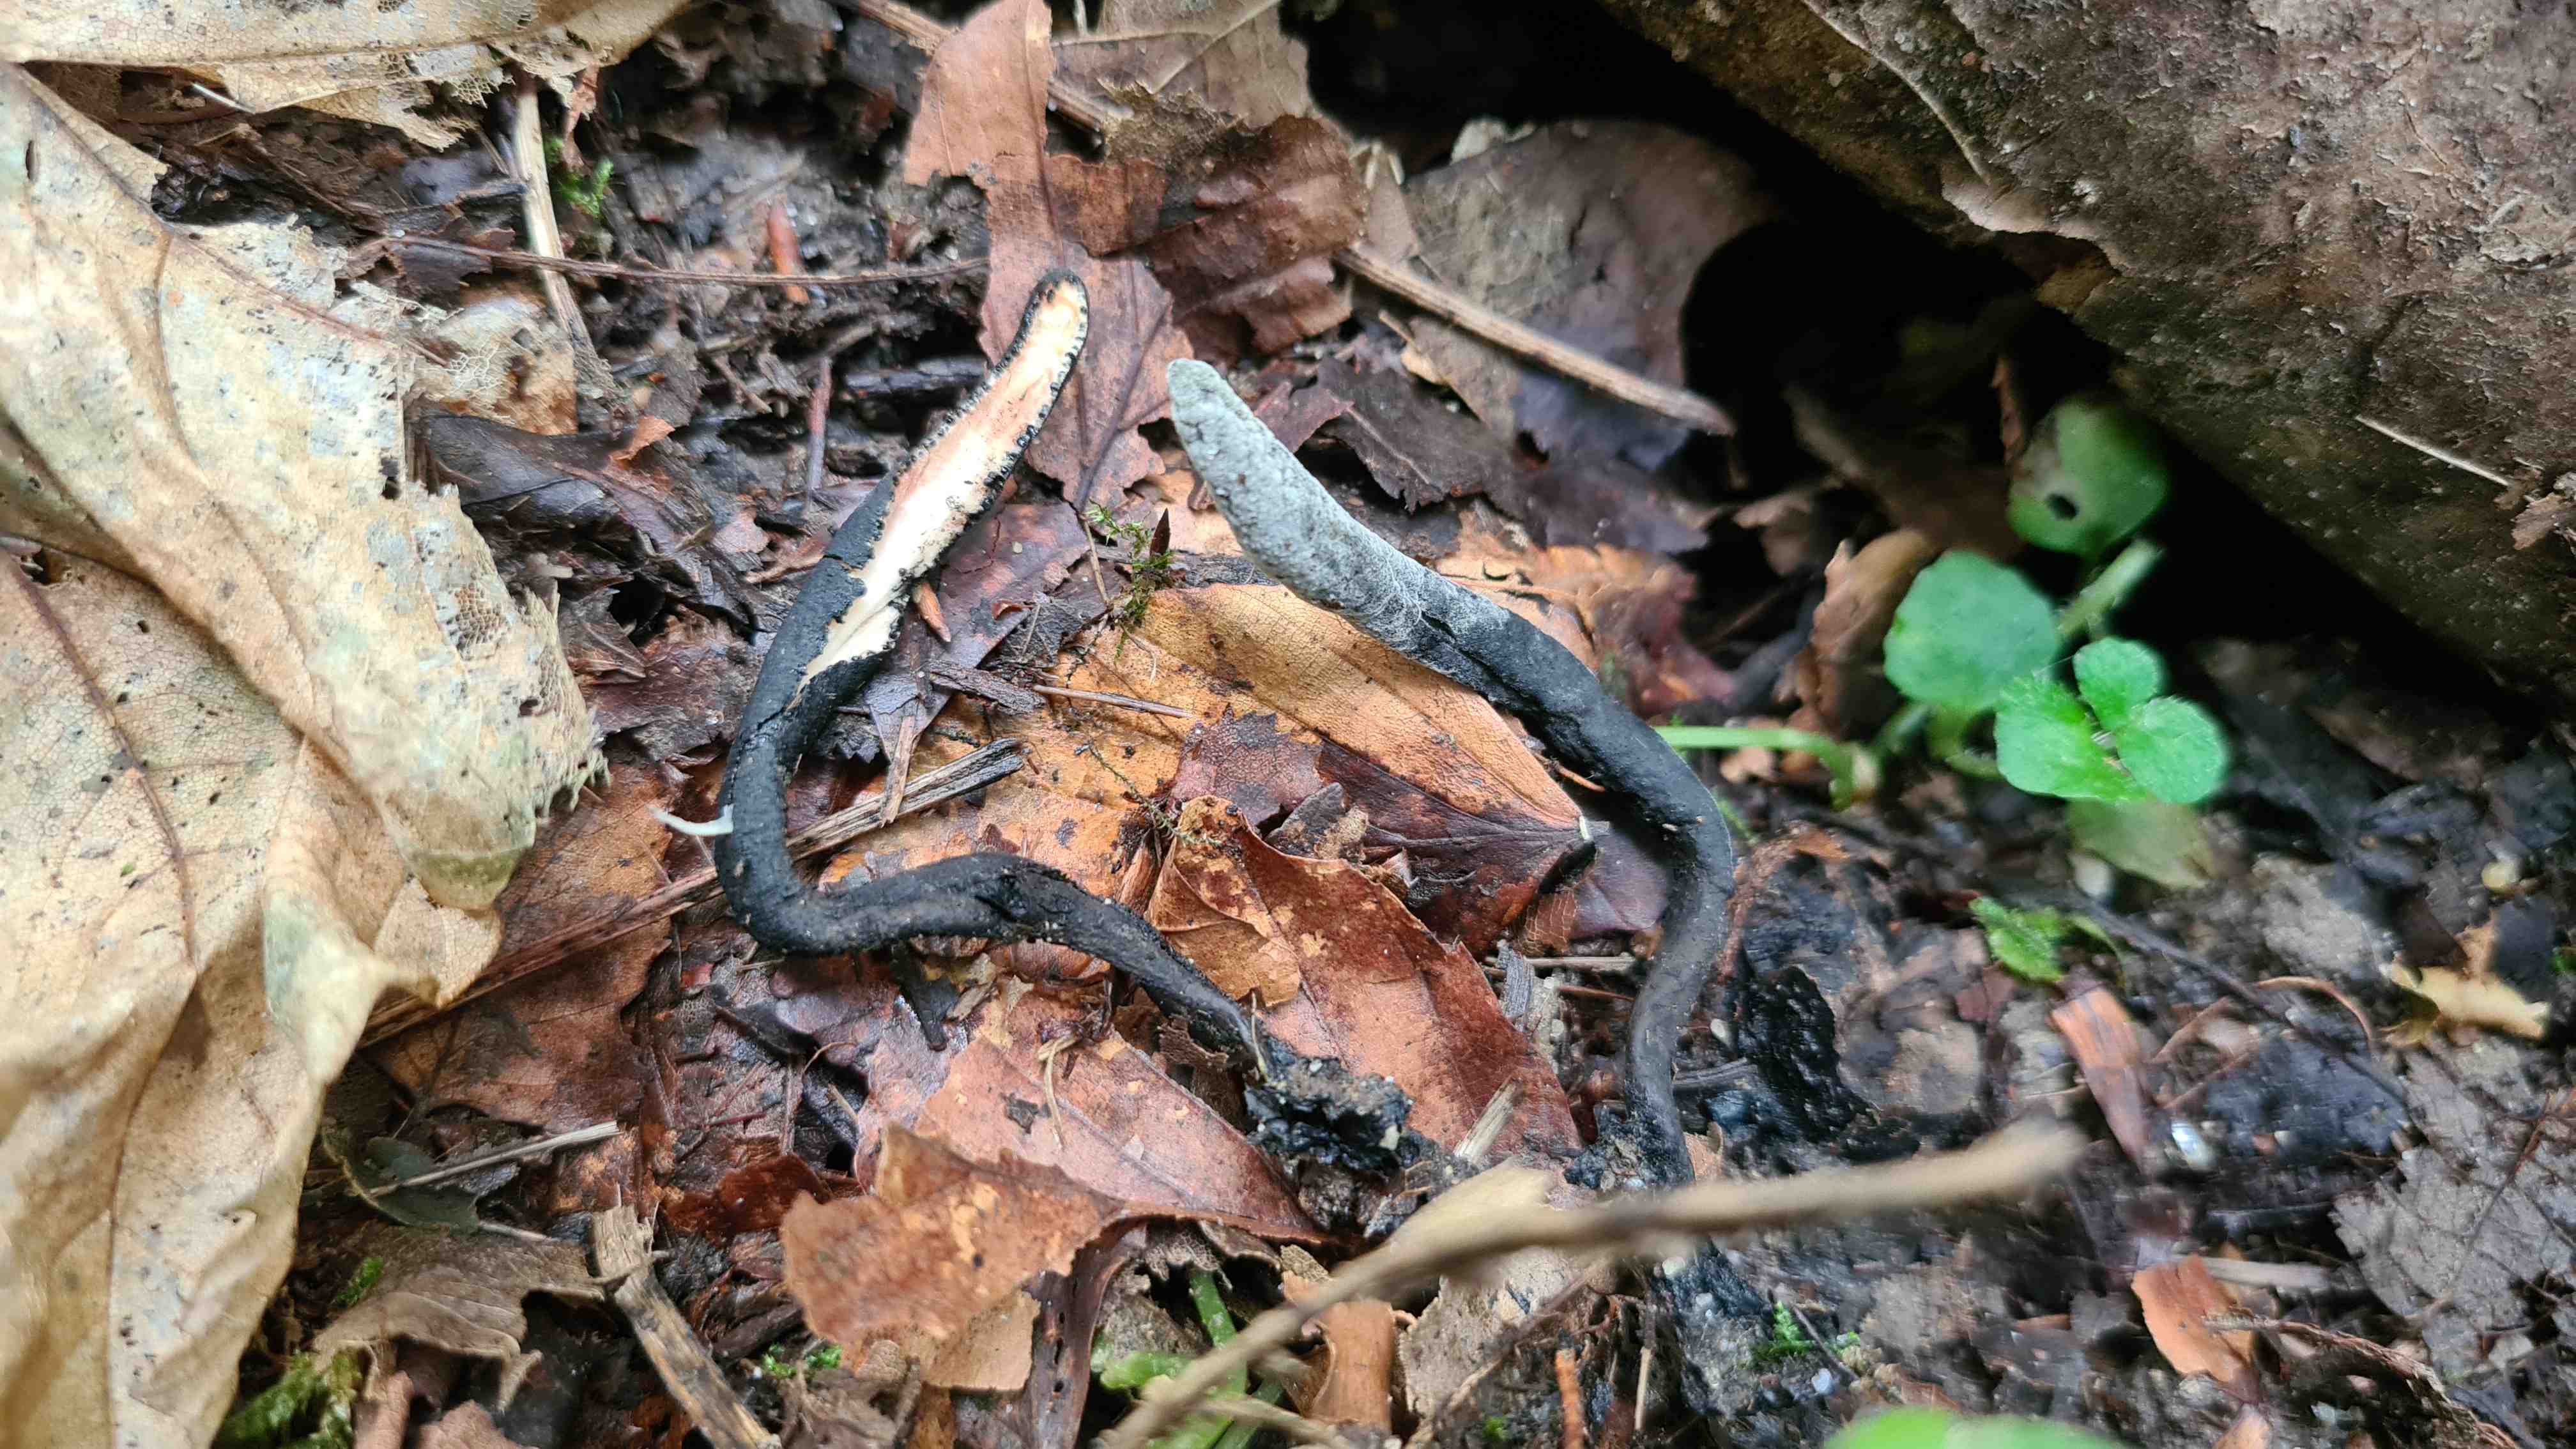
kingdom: Fungi
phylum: Ascomycota
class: Sordariomycetes
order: Xylariales
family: Xylariaceae
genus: Xylaria
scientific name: Xylaria longipes
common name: slank stødsvamp
